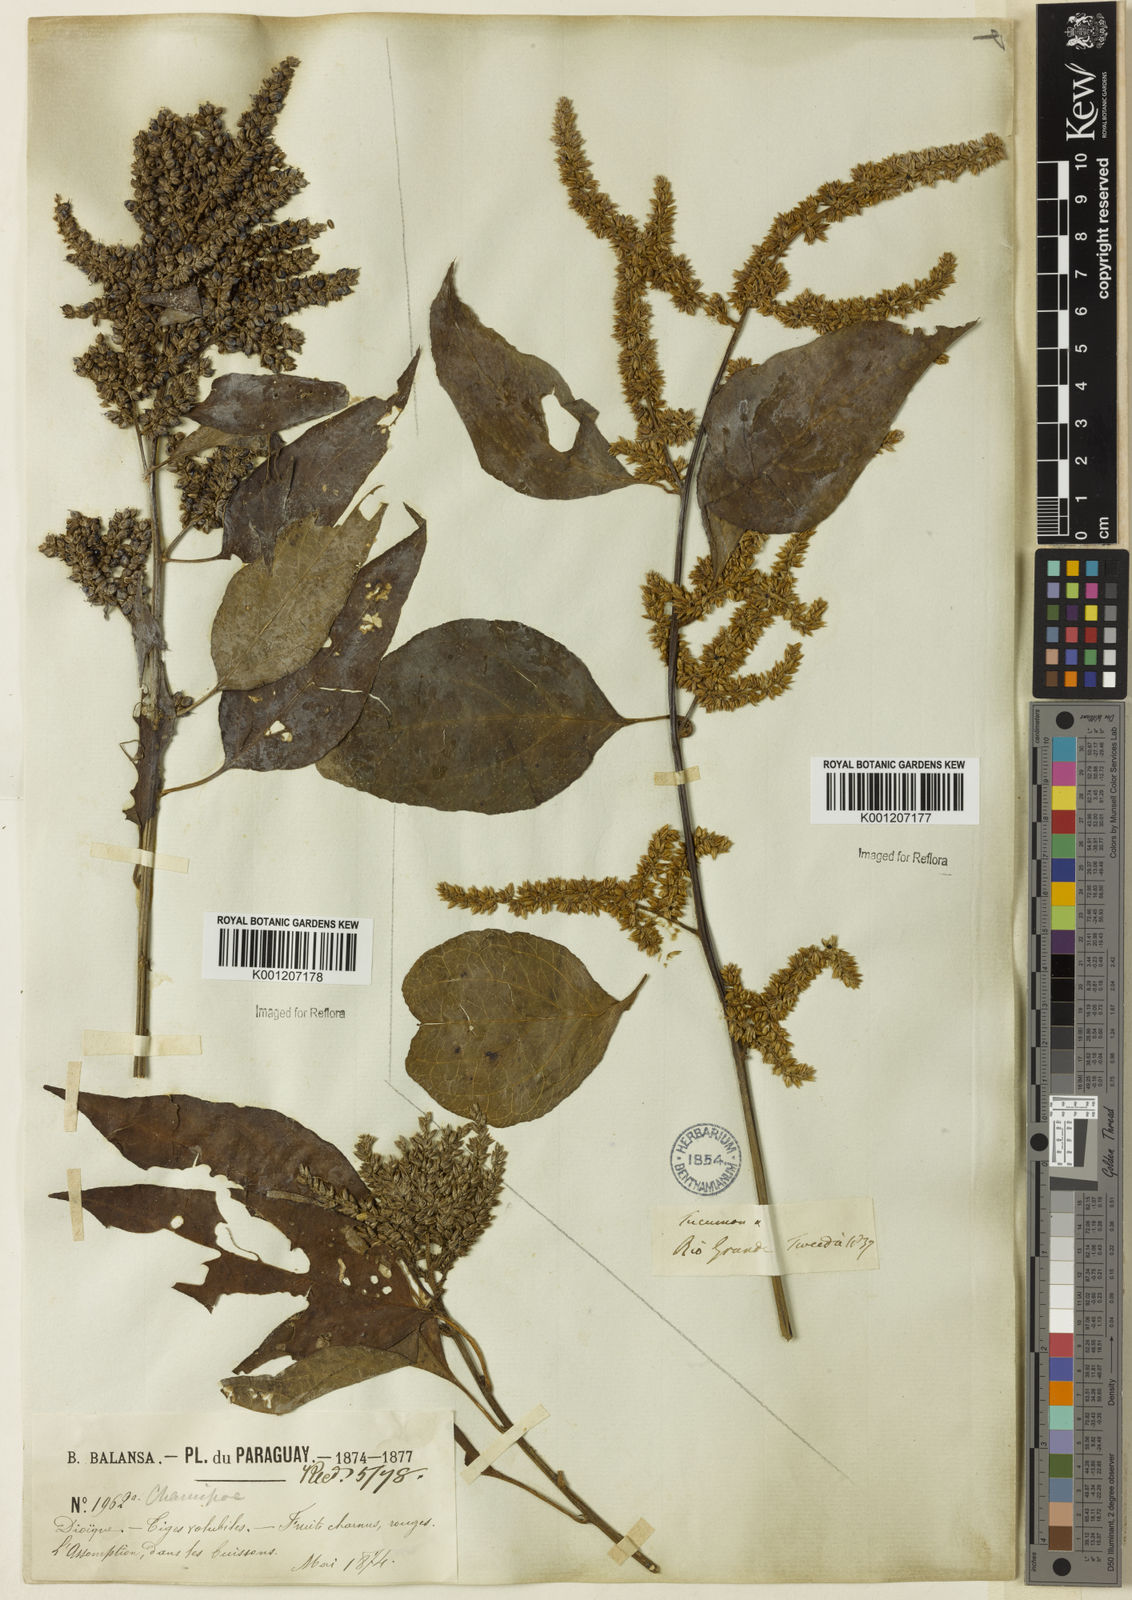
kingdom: Plantae
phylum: Tracheophyta
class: Magnoliopsida
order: Caryophyllales
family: Amaranthaceae
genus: Chamissoa
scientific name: Chamissoa altissima
